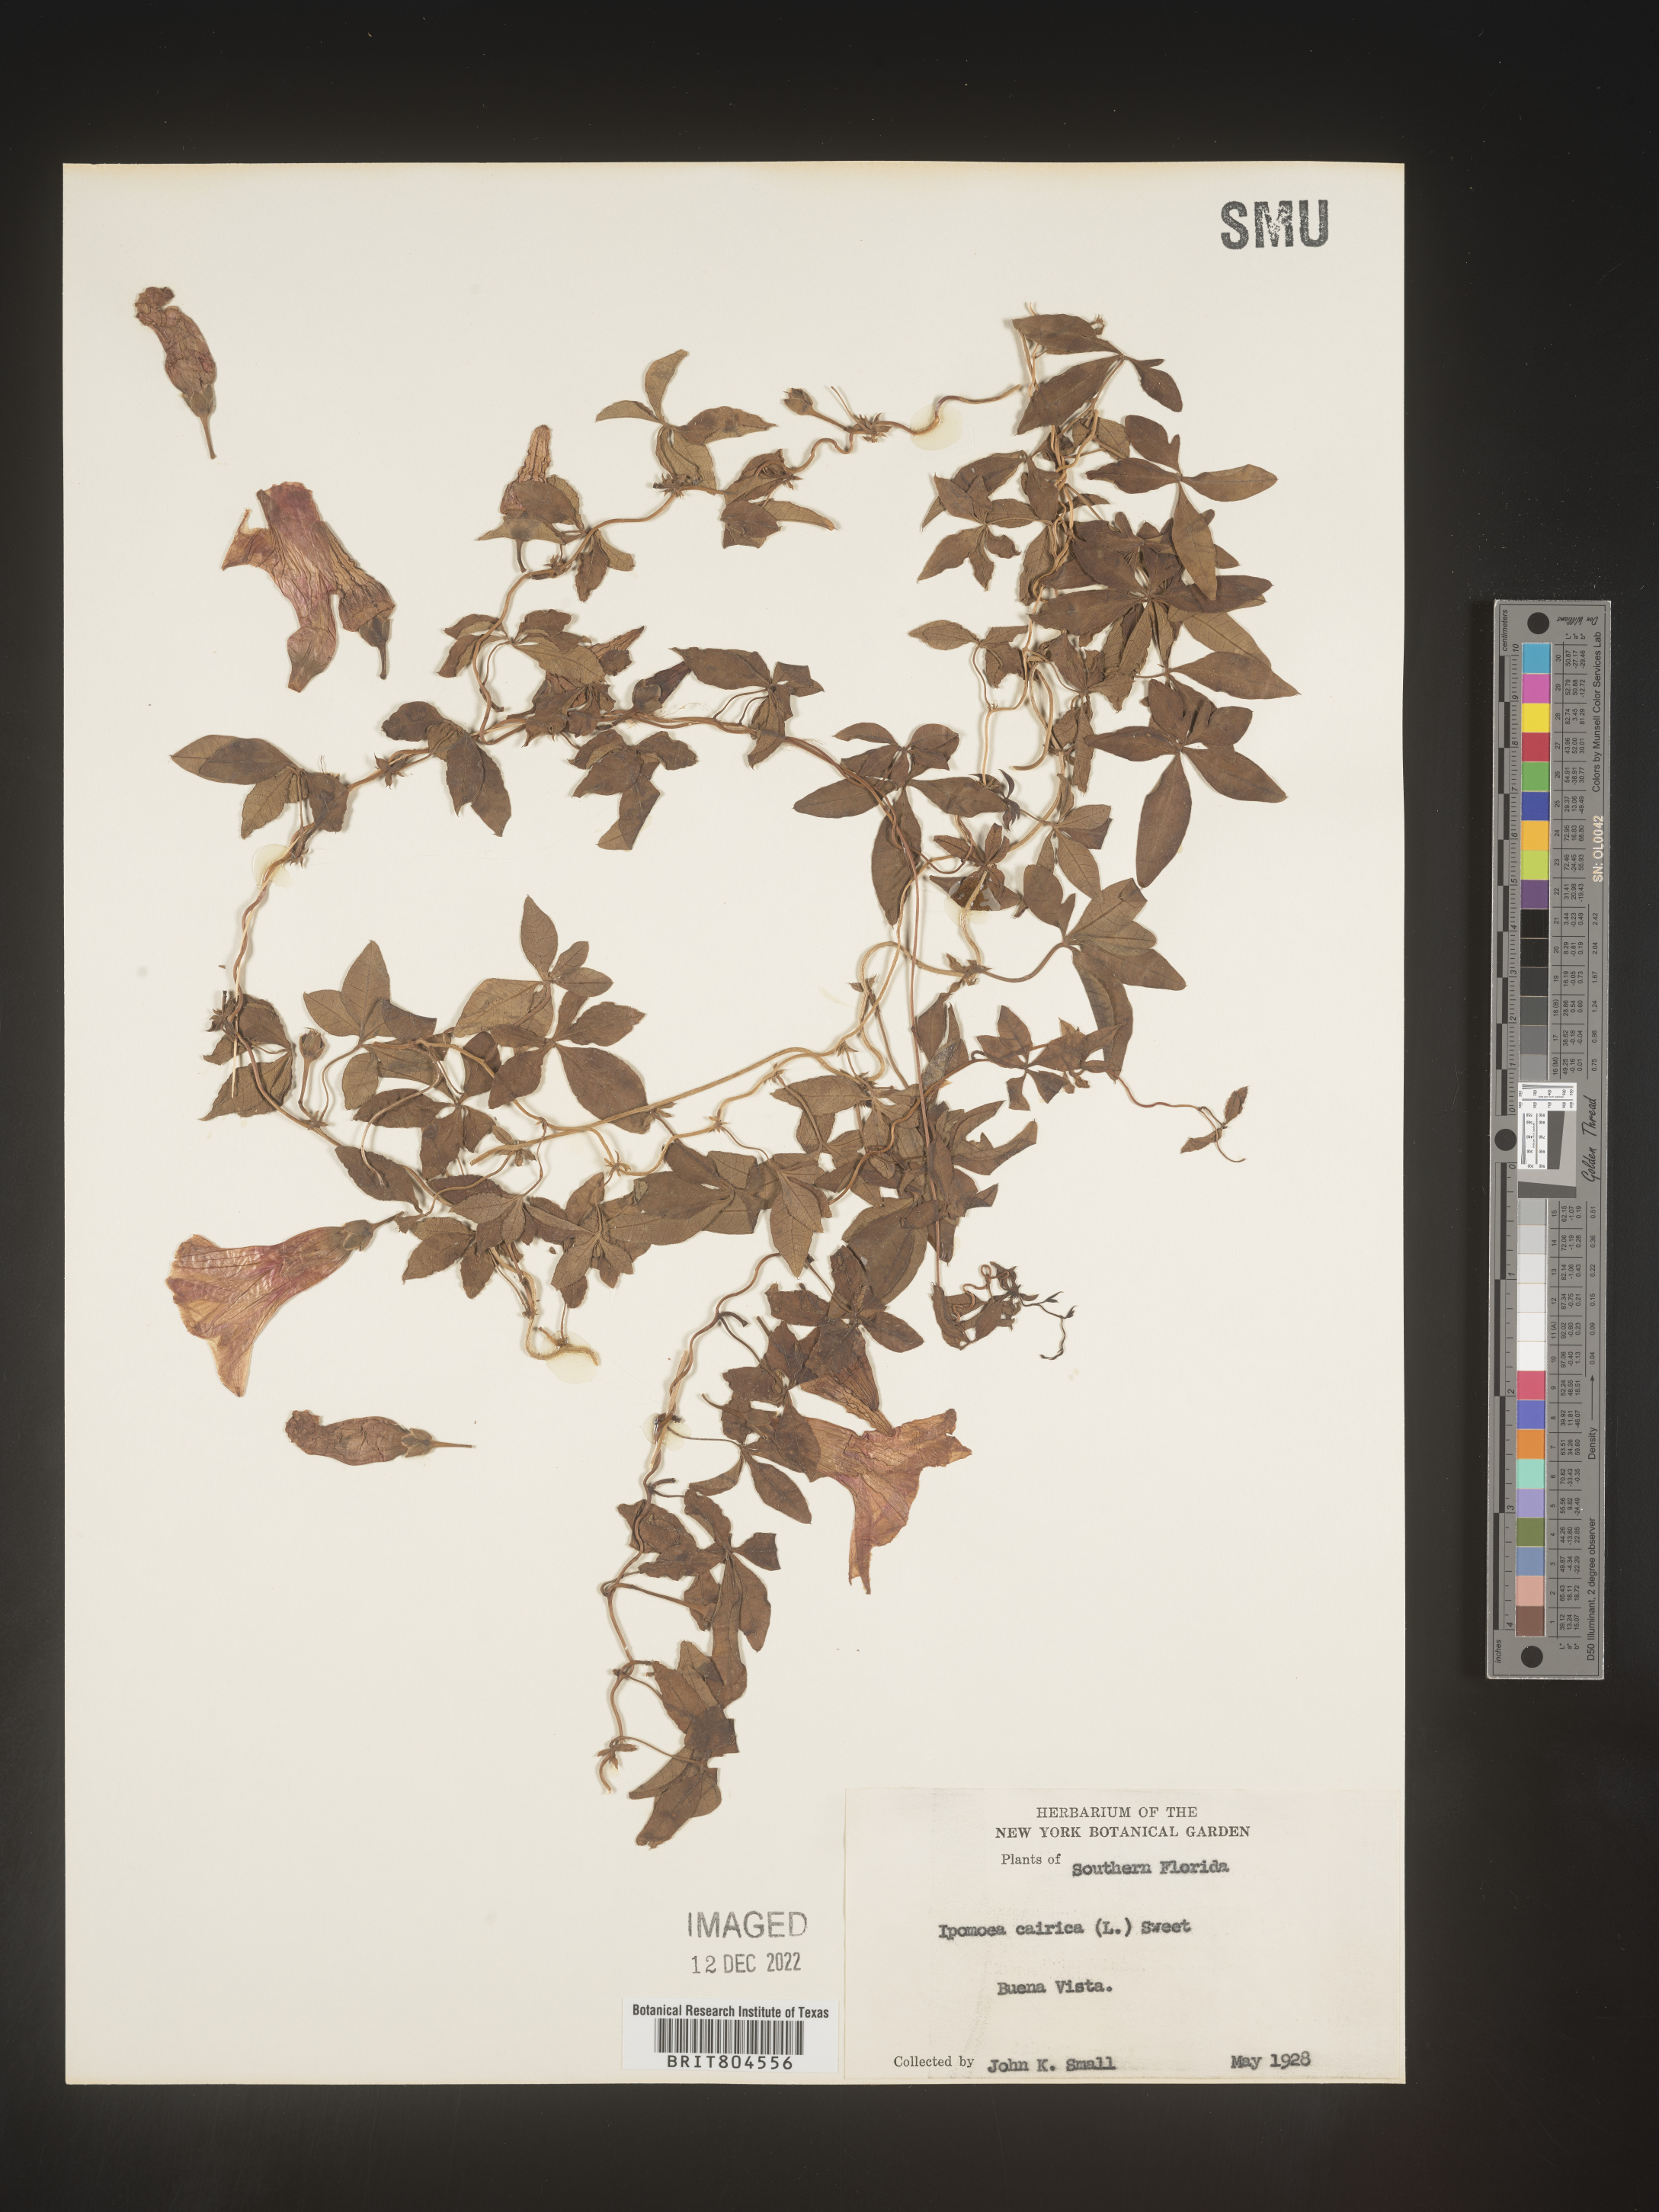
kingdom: Plantae
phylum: Tracheophyta
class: Magnoliopsida
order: Solanales
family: Convolvulaceae
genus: Ipomoea
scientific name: Ipomoea cairica
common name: Mile a minute vine
